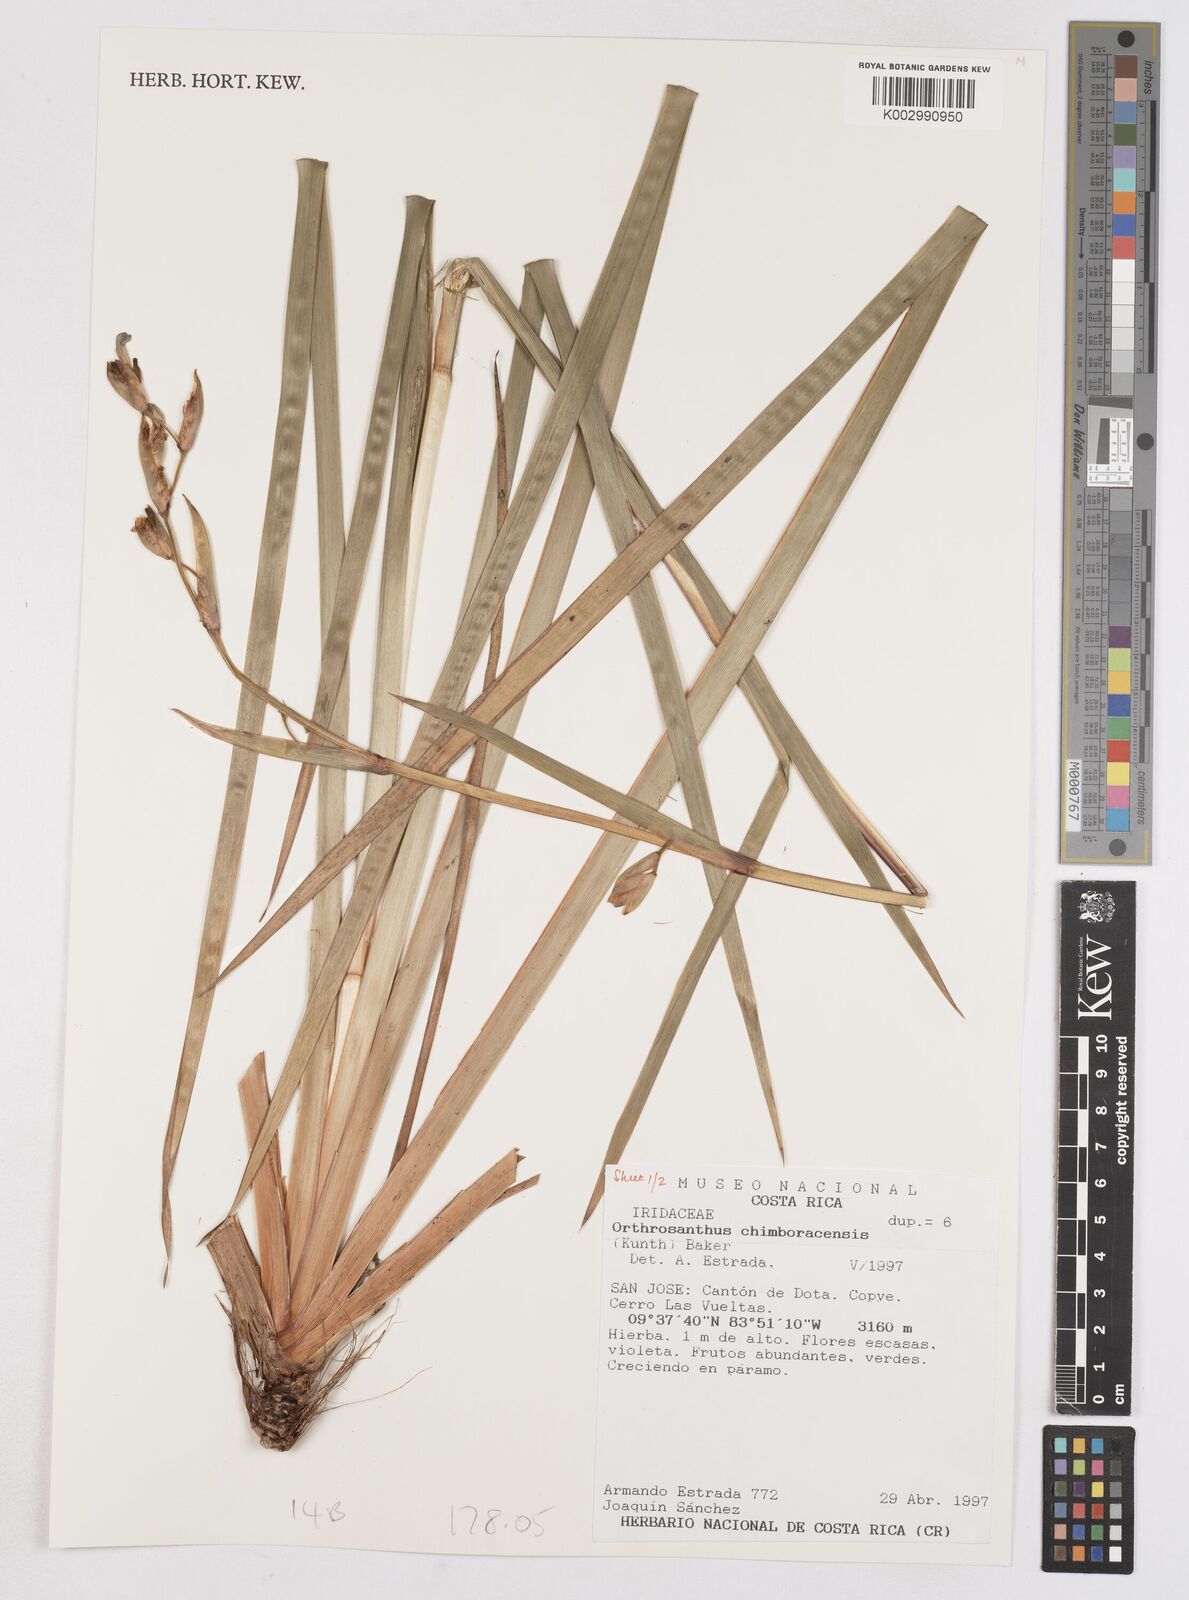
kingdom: Plantae
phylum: Tracheophyta
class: Liliopsida
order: Asparagales
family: Iridaceae
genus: Orthrosanthus
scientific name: Orthrosanthus chimboracensis
